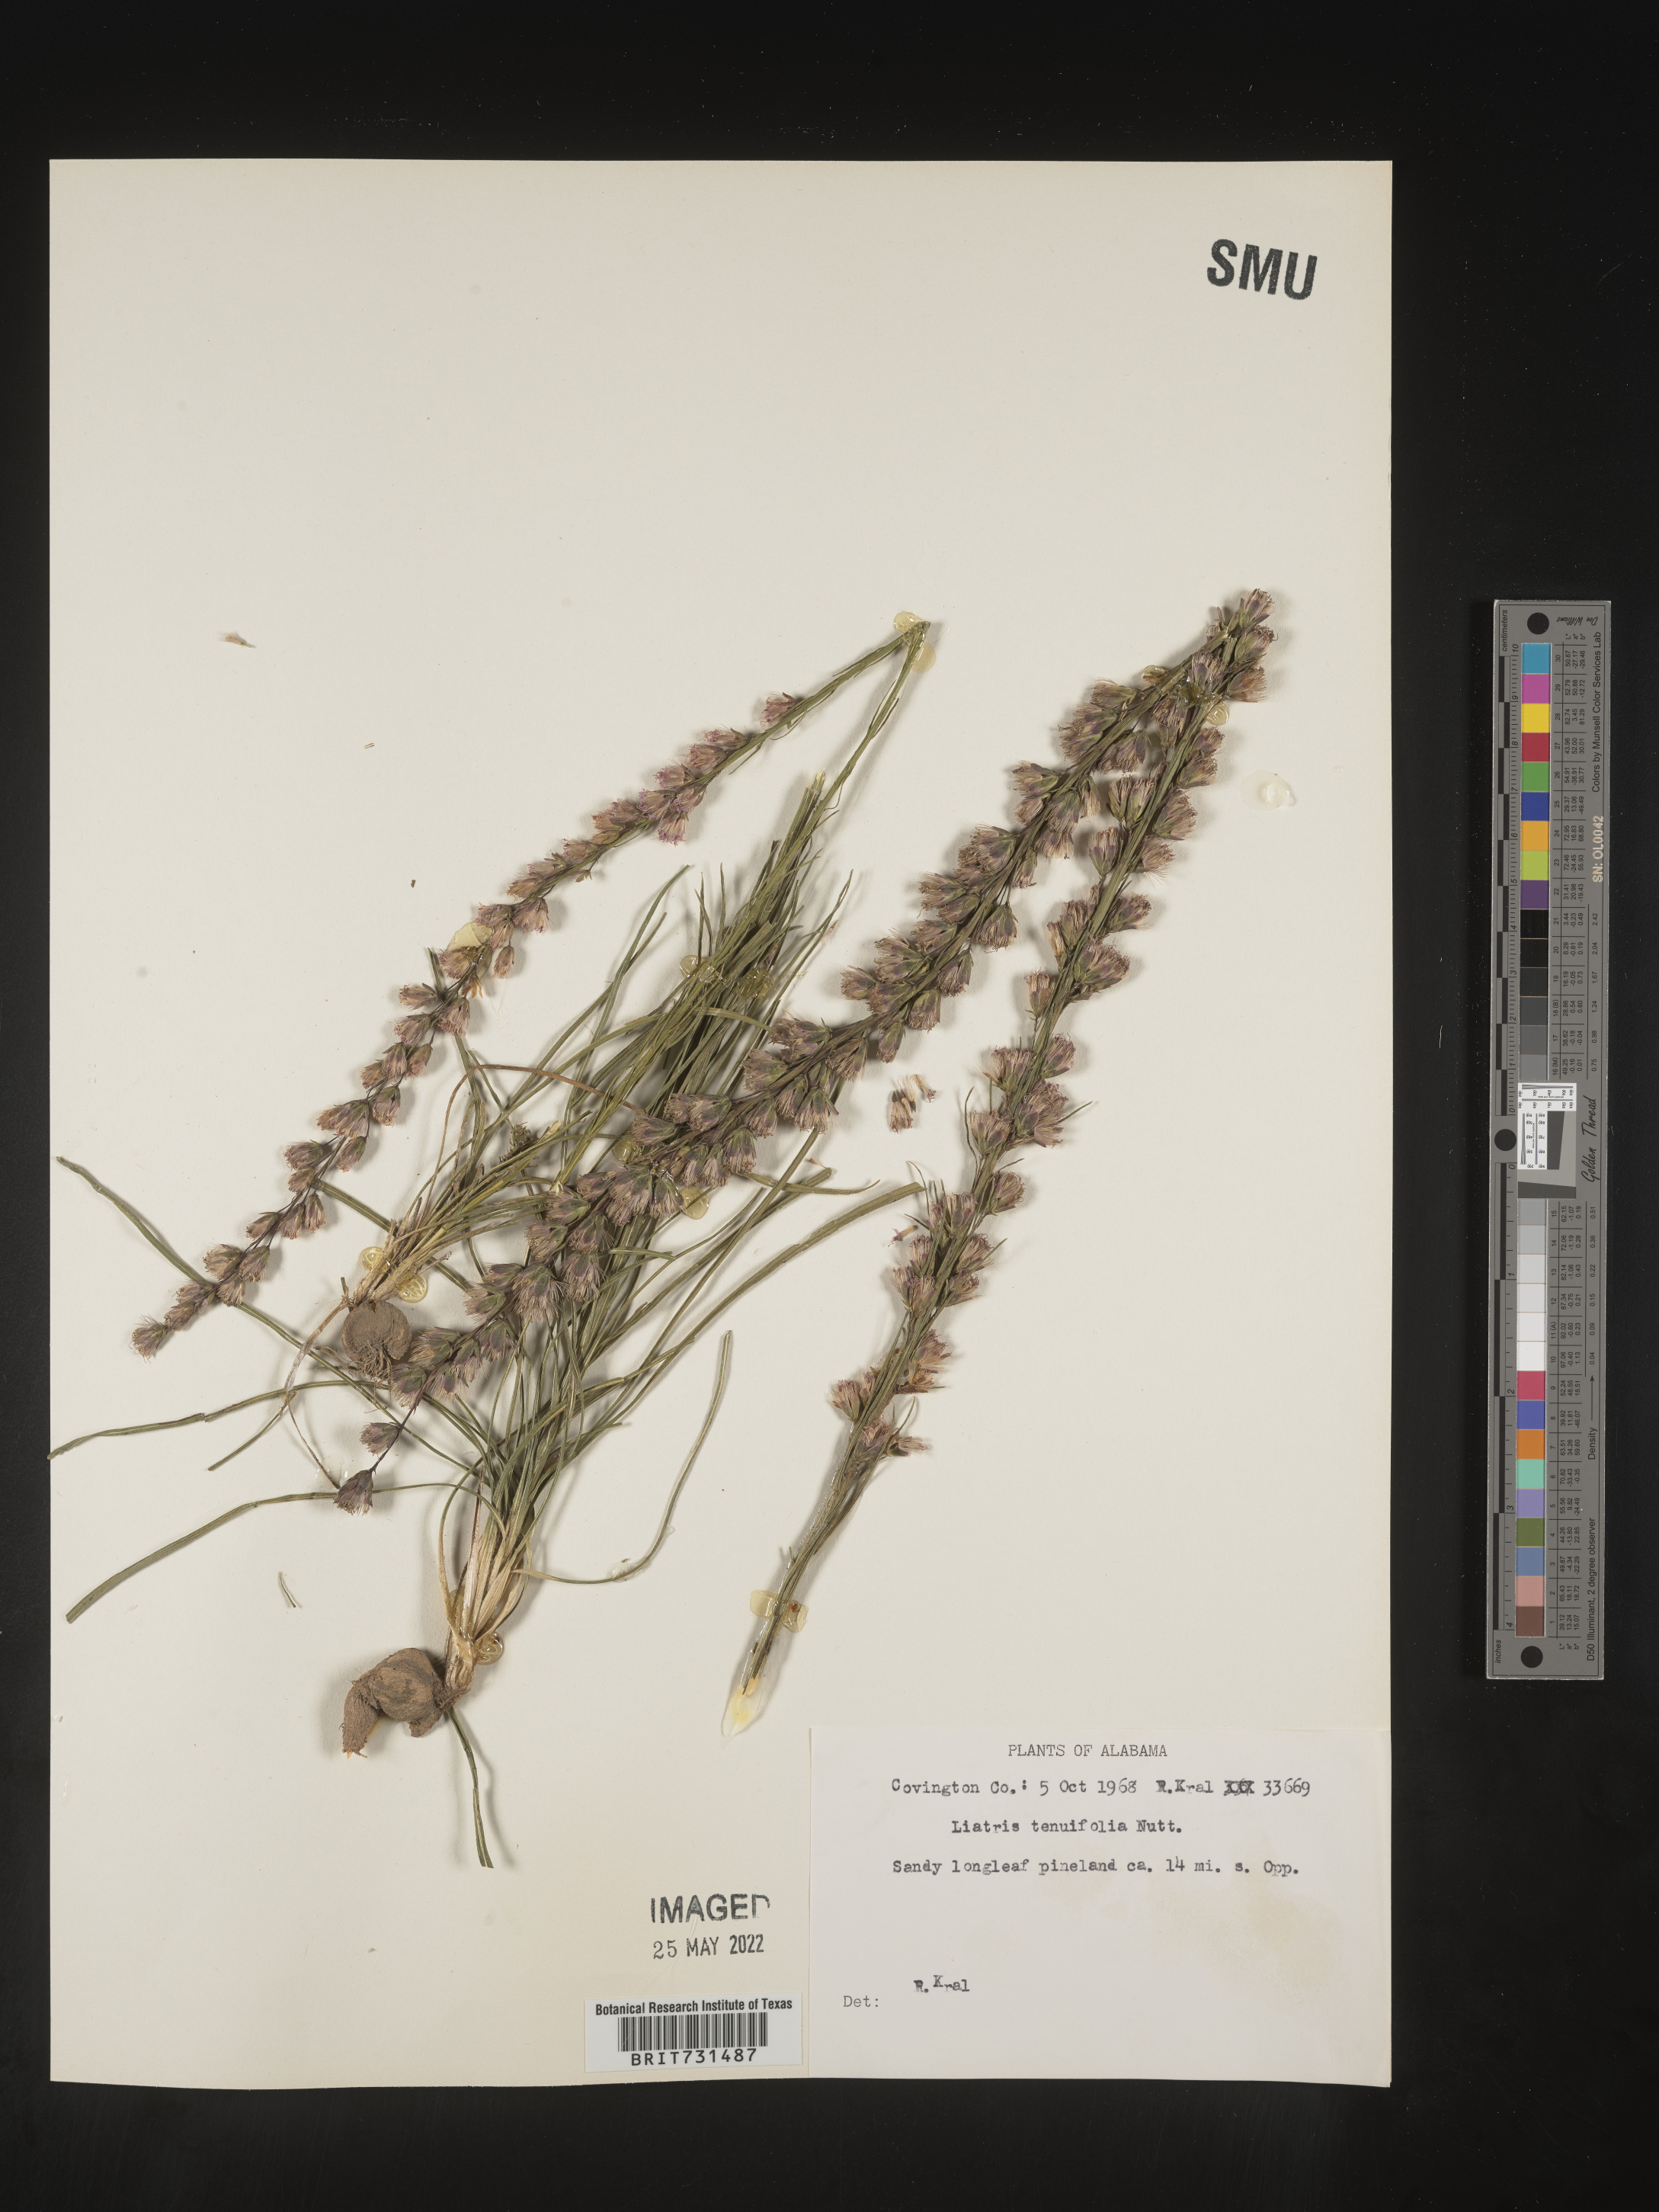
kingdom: Plantae
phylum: Tracheophyta
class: Magnoliopsida
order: Asterales
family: Asteraceae
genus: Liatris
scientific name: Liatris tenuifolia
